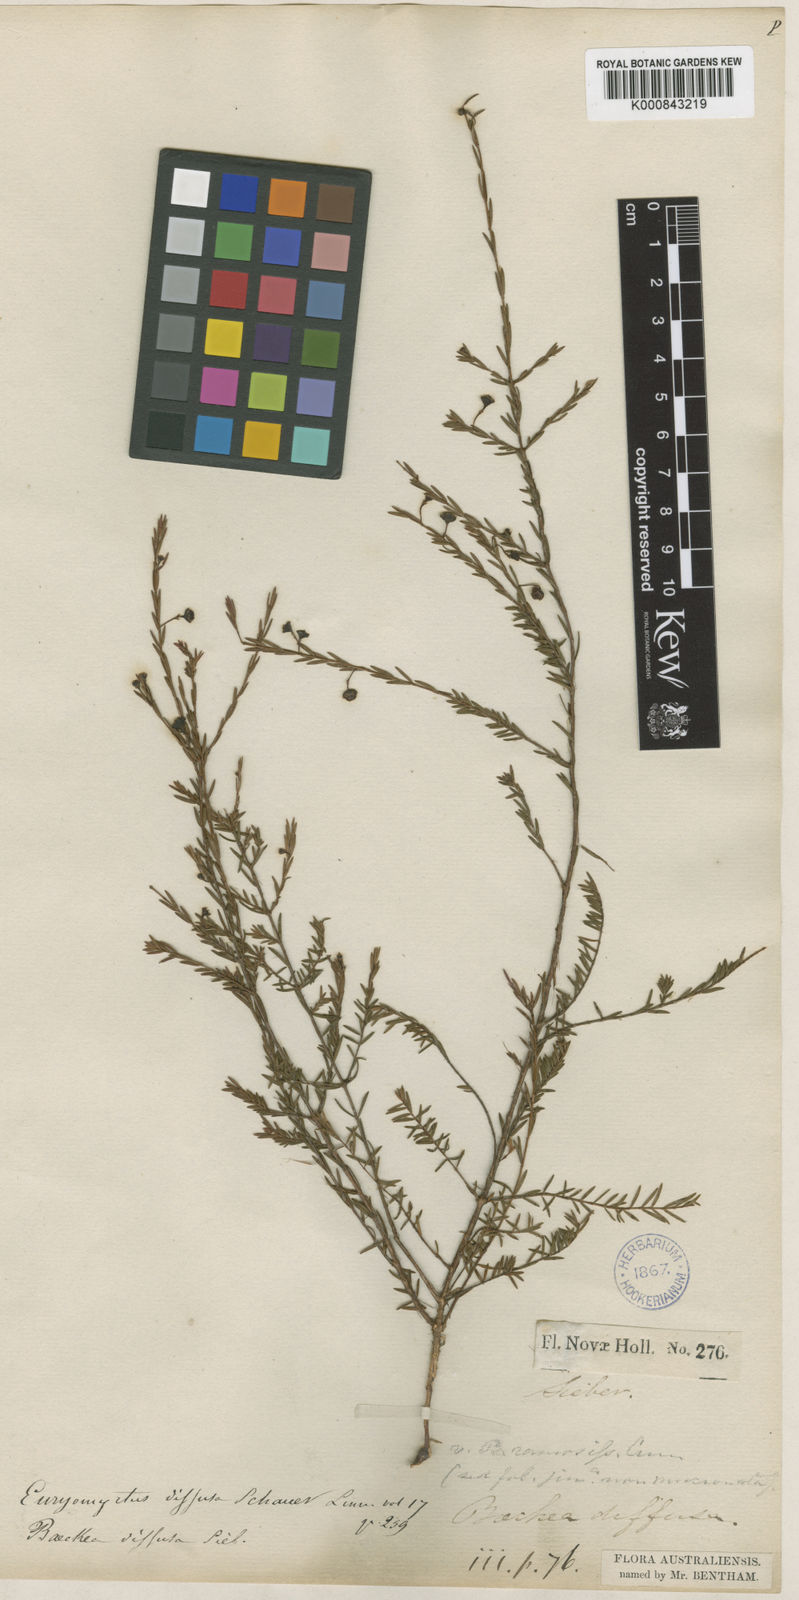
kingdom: Plantae
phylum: Tracheophyta
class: Magnoliopsida
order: Myrtales
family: Myrtaceae
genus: Euryomyrtus
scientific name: Euryomyrtus ramosissima
